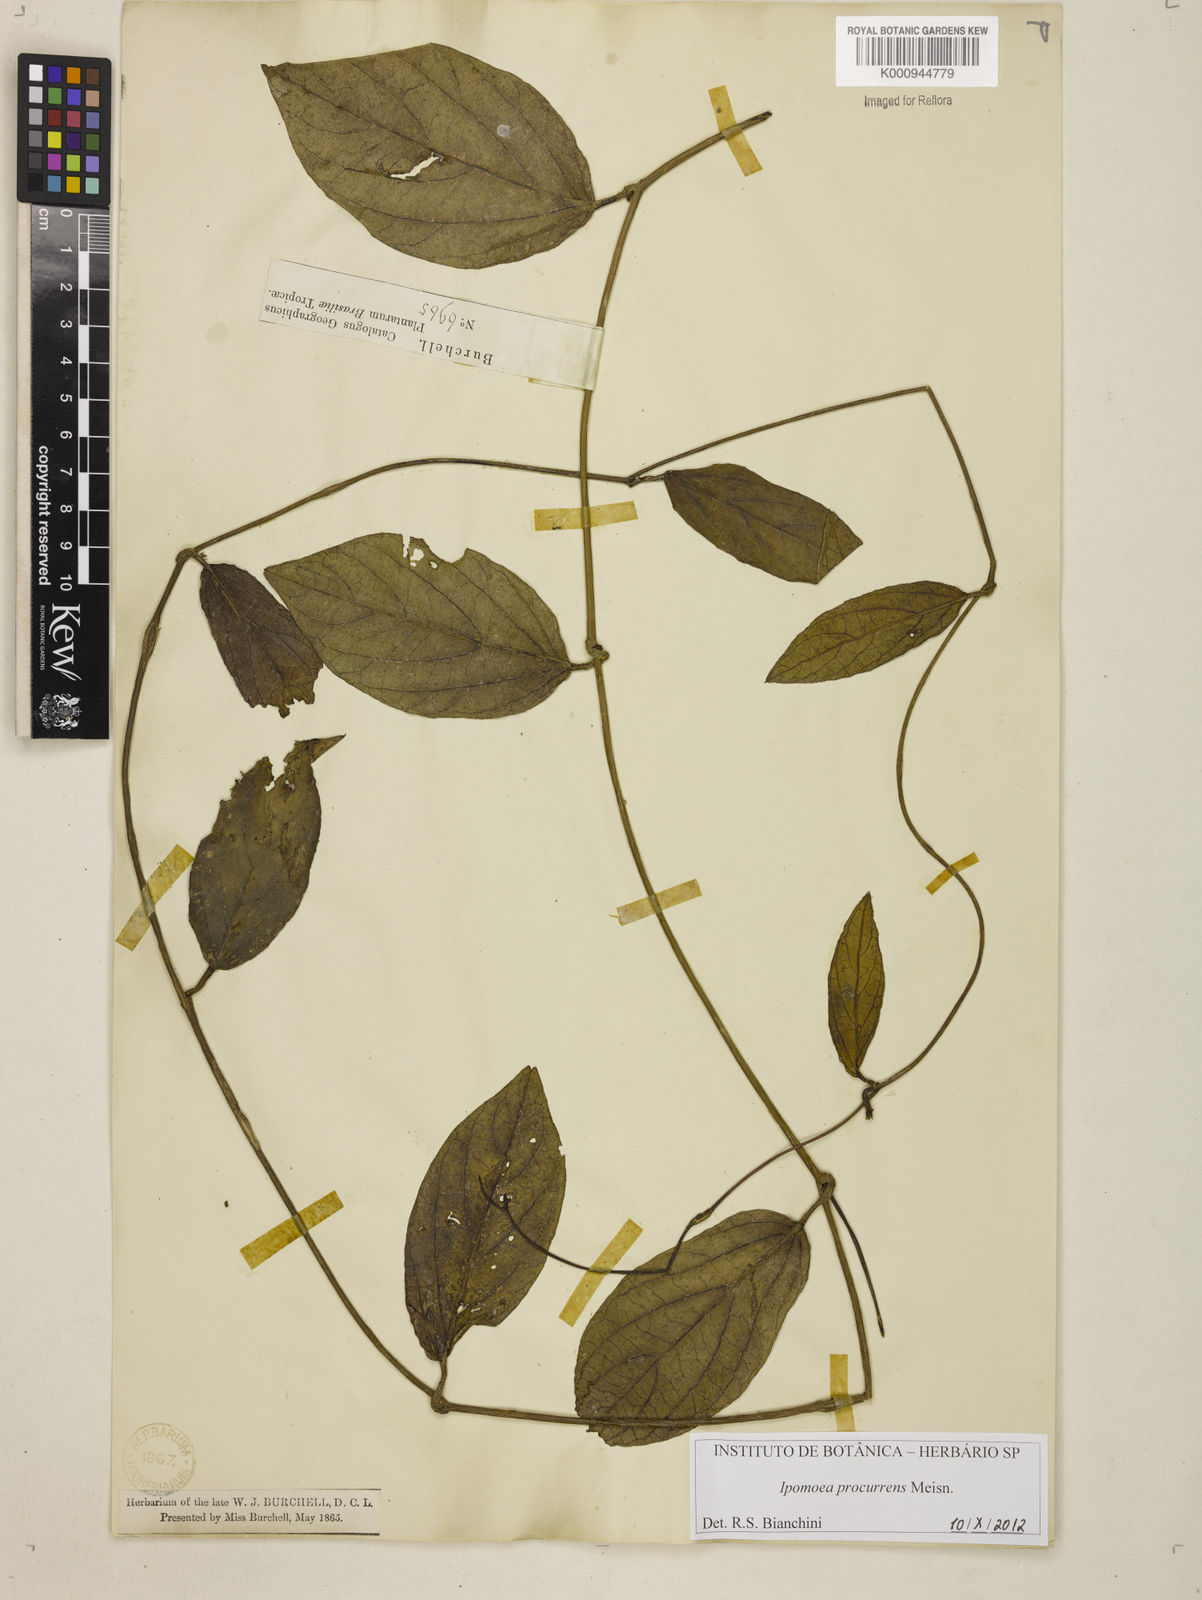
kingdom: Plantae
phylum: Tracheophyta
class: Magnoliopsida
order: Solanales
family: Convolvulaceae
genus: Ipomoea
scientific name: Ipomoea procurrens
